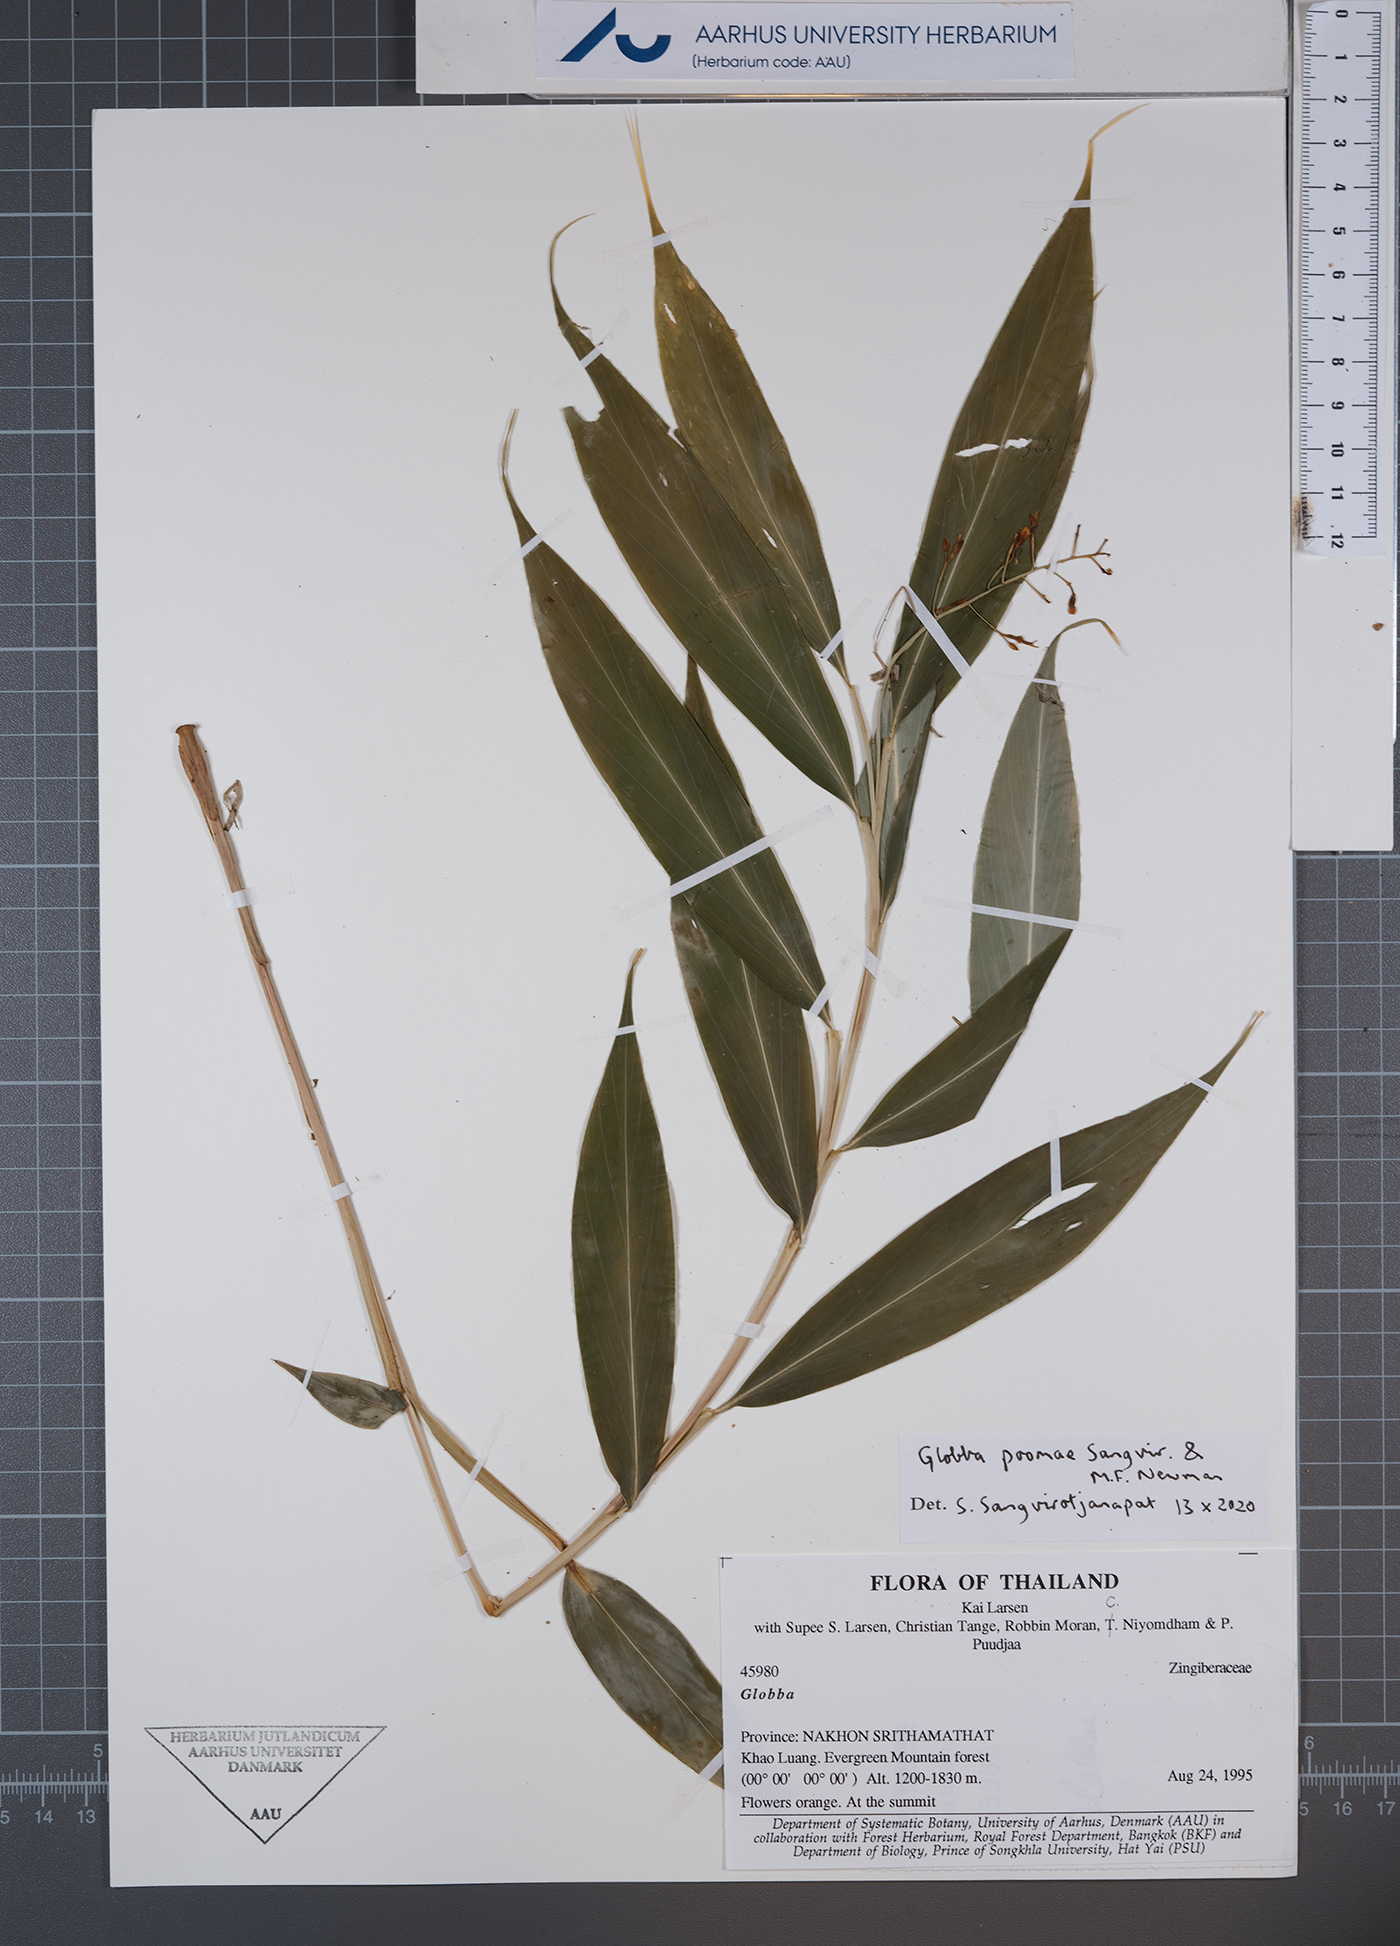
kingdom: Plantae
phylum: Tracheophyta
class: Liliopsida
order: Zingiberales
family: Zingiberaceae
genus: Globba
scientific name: Globba poomae
